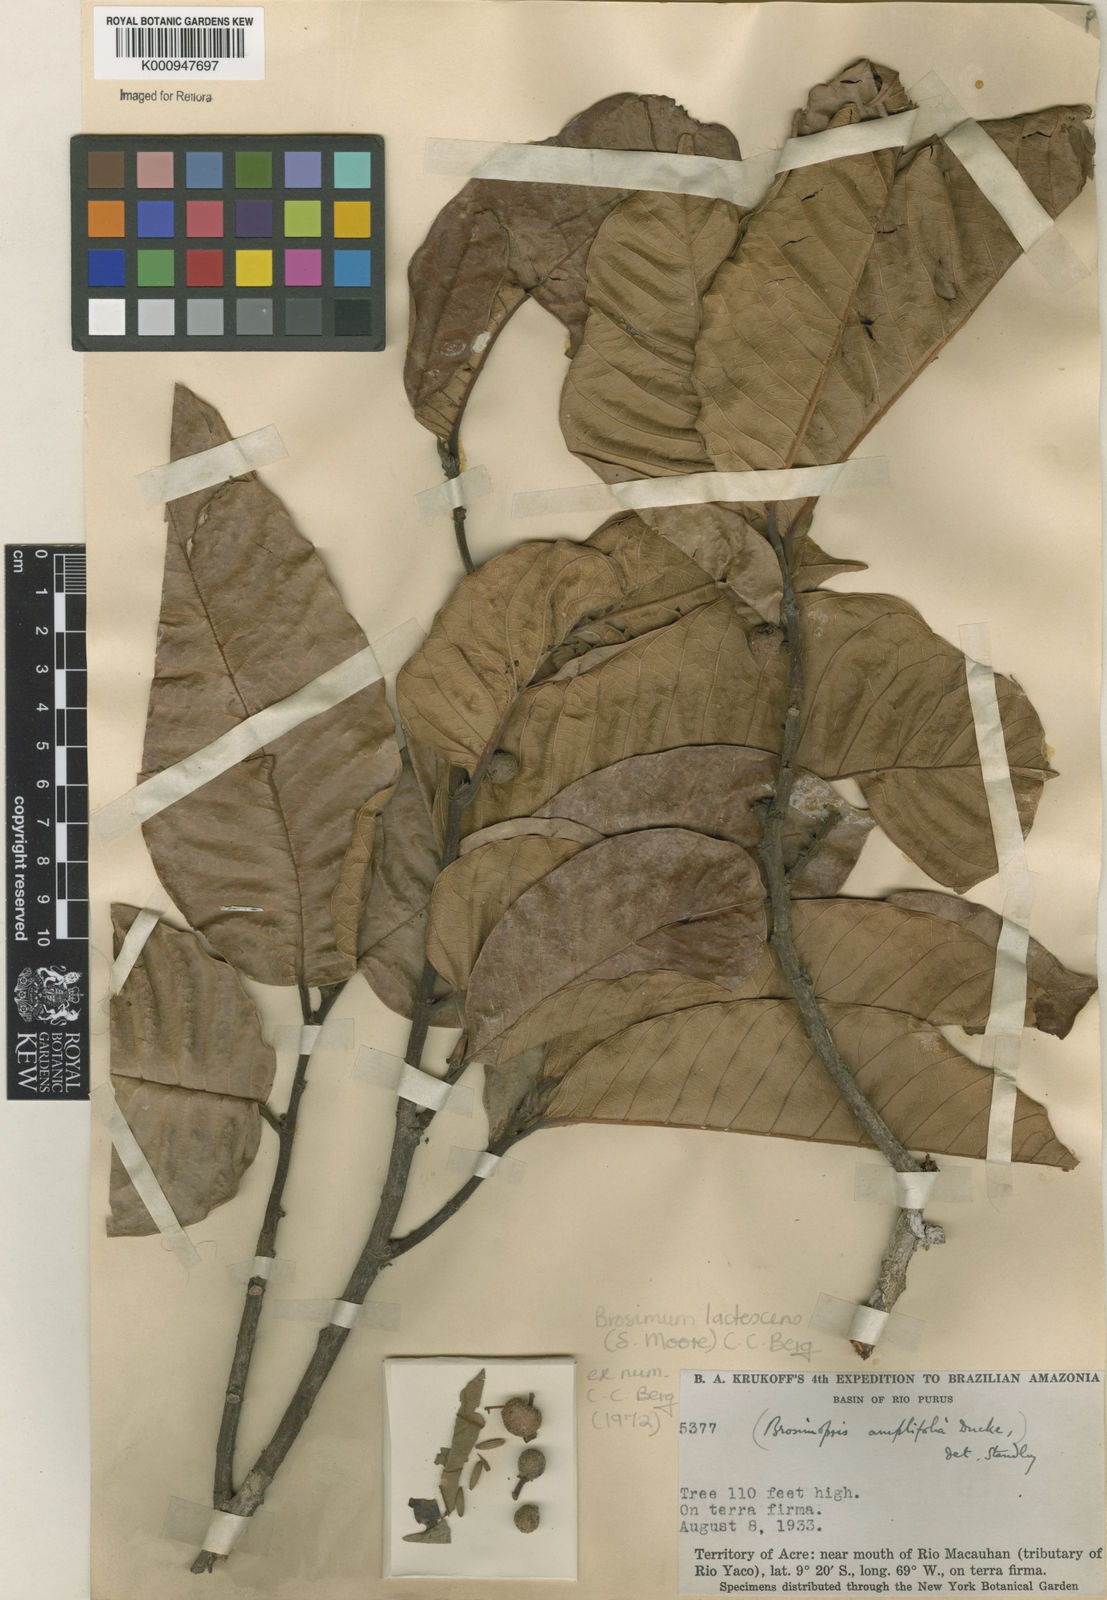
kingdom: Plantae
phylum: Tracheophyta
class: Magnoliopsida
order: Rosales
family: Moraceae
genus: Brosimum
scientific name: Brosimum lactescens
